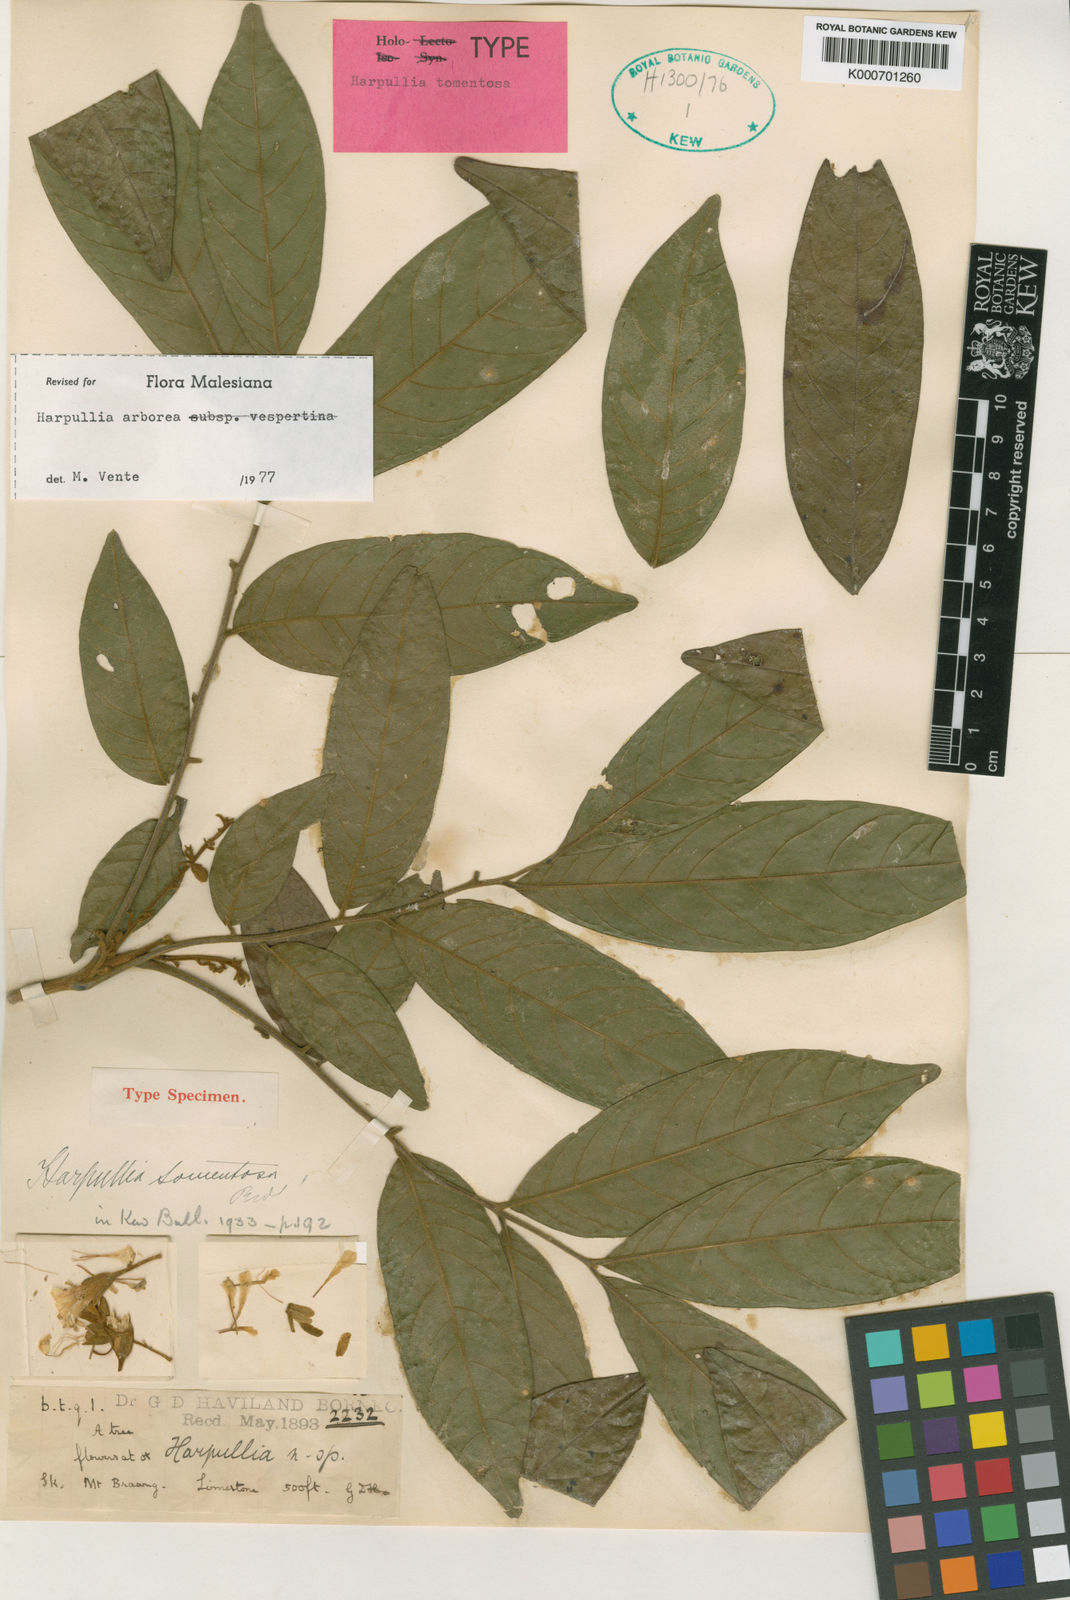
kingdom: Plantae
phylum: Tracheophyta
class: Magnoliopsida
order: Sapindales
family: Sapindaceae
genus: Harpullia
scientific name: Harpullia arborea
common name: Tulip-wood tree
